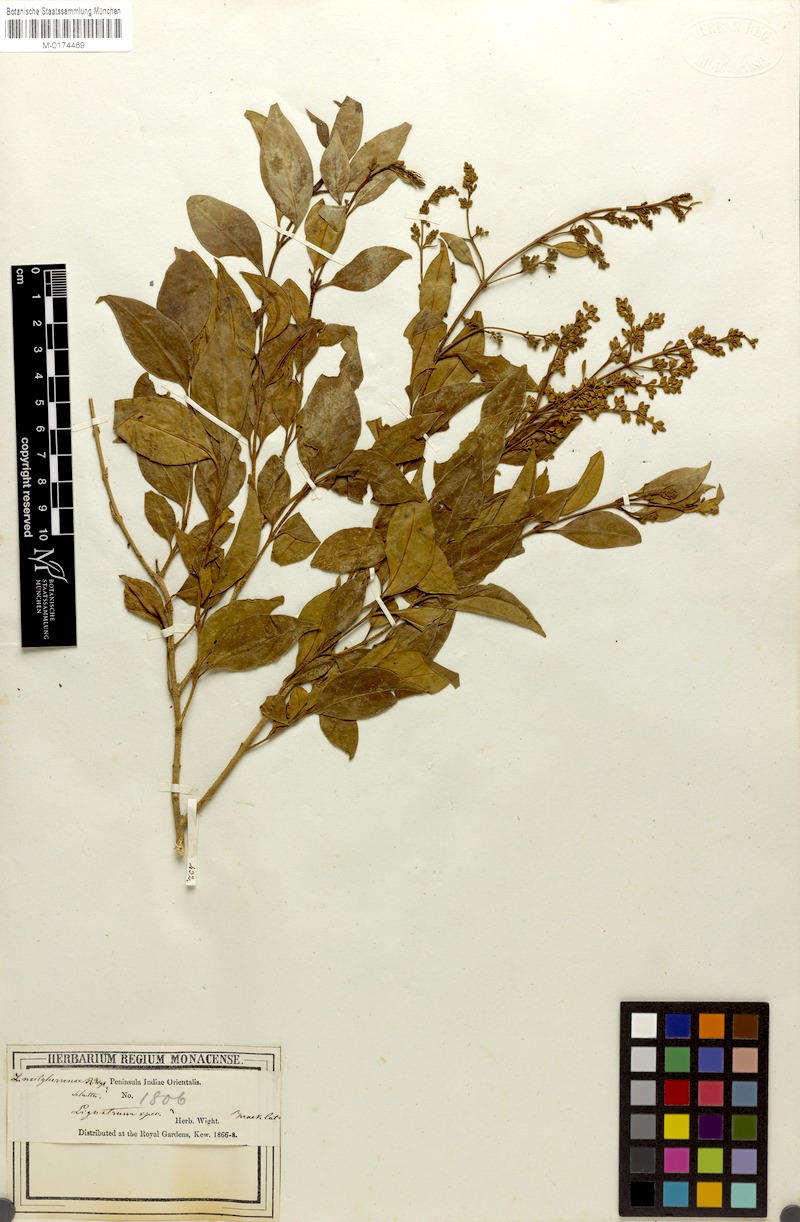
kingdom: Plantae
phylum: Tracheophyta
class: Magnoliopsida
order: Lamiales
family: Oleaceae
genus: Ligustrum
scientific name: Ligustrum robustum
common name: Tree privet
